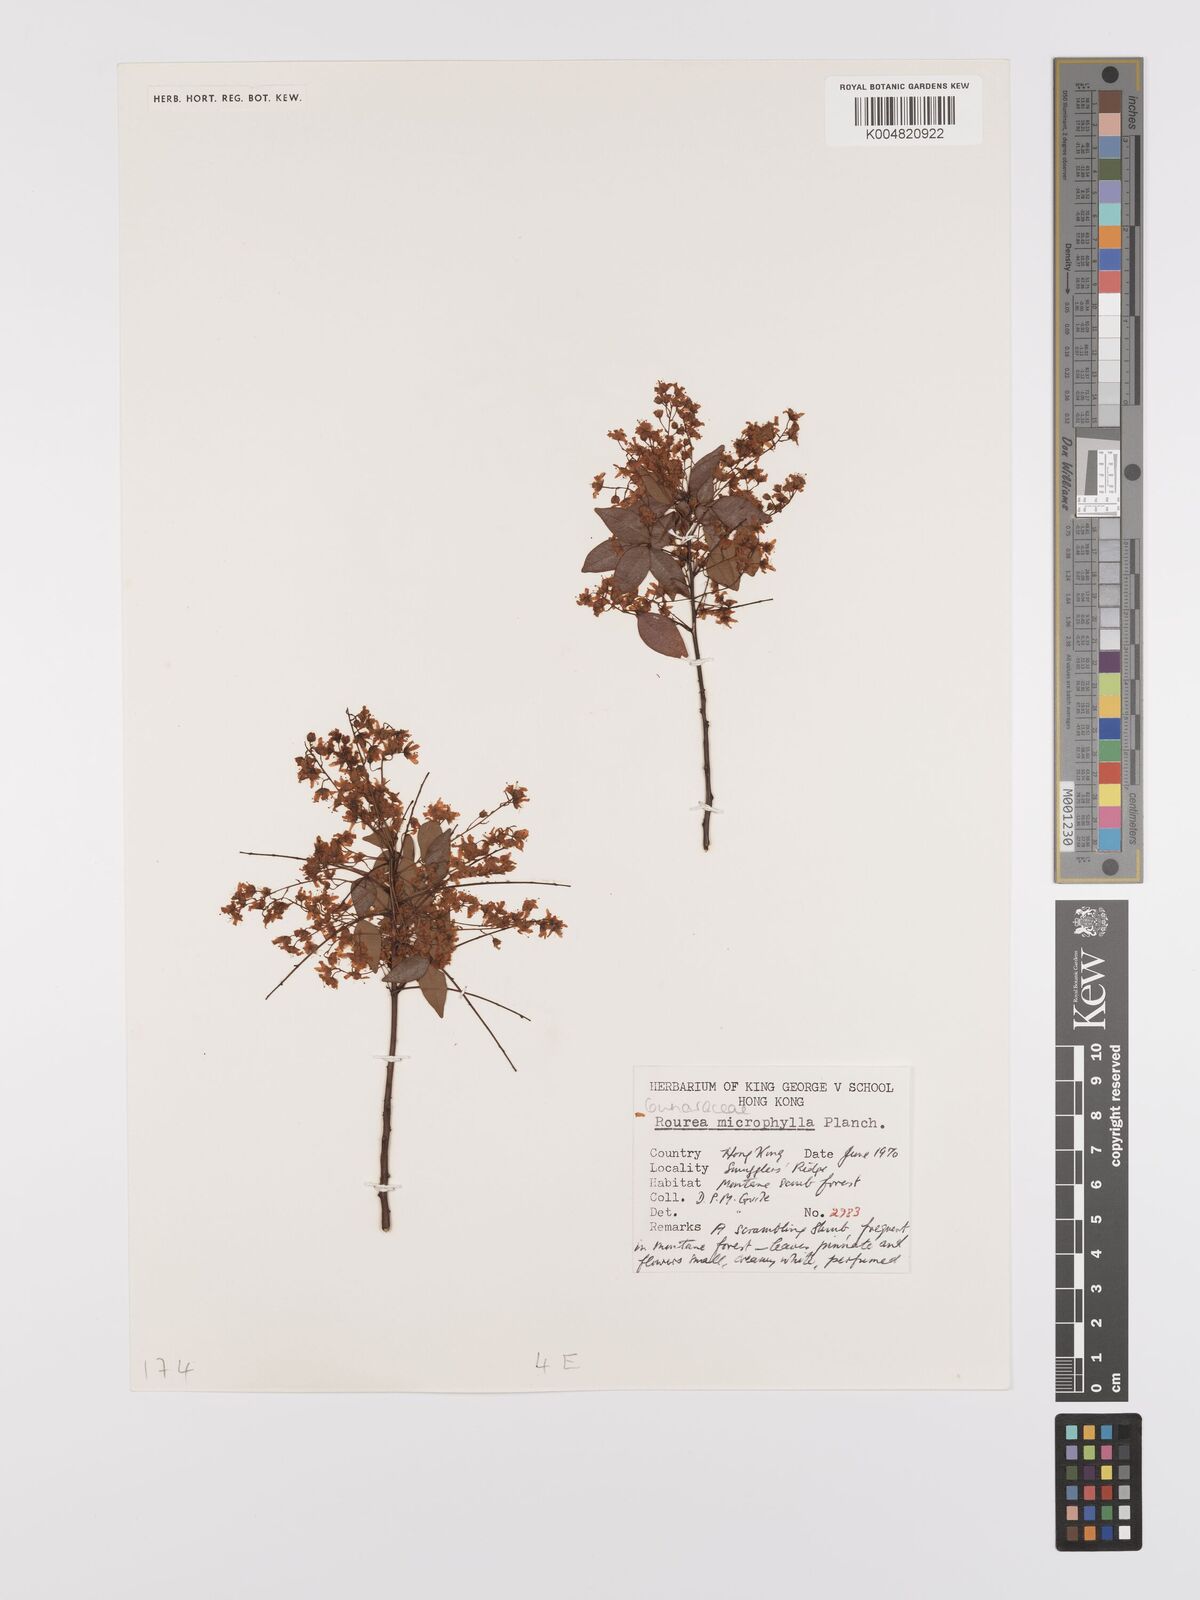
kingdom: Plantae
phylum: Tracheophyta
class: Magnoliopsida
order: Oxalidales
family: Connaraceae
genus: Rourea
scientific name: Rourea microphylla
